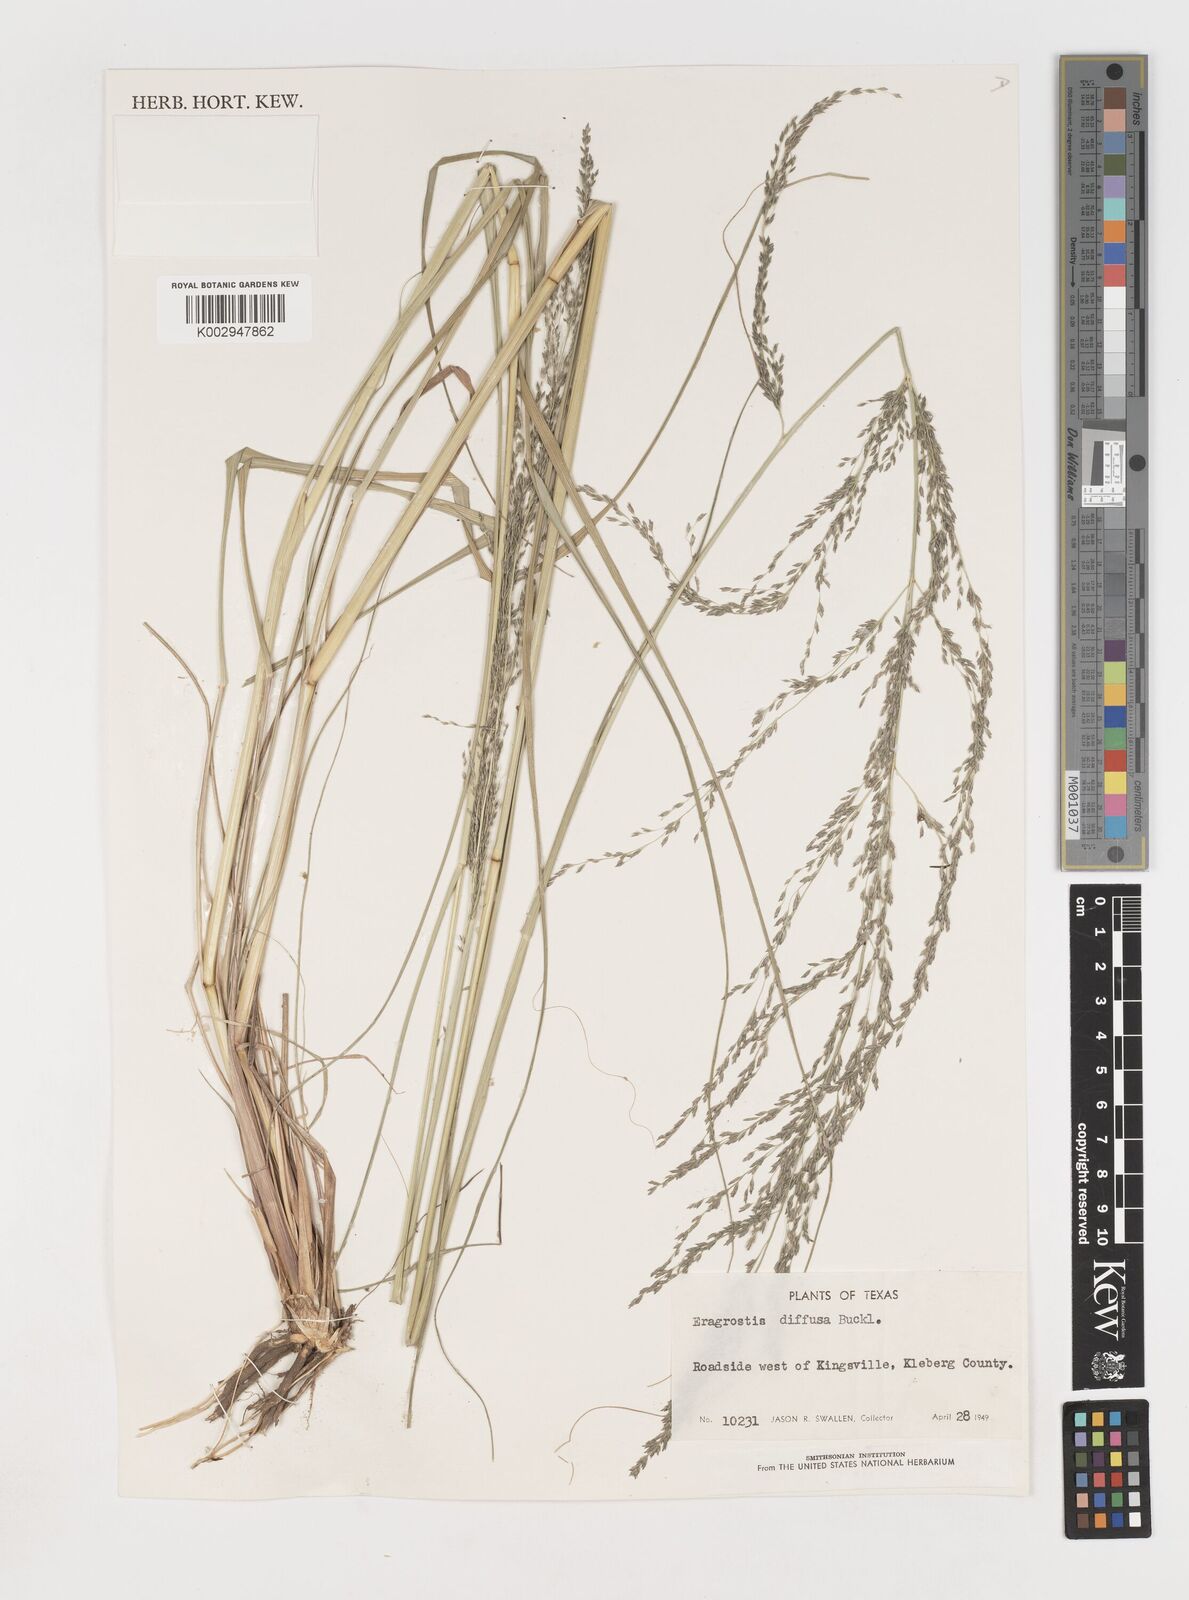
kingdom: Plantae
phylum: Tracheophyta
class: Liliopsida
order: Poales
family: Poaceae
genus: Eragrostis
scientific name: Eragrostis pectinacea
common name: Tufted lovegrass
